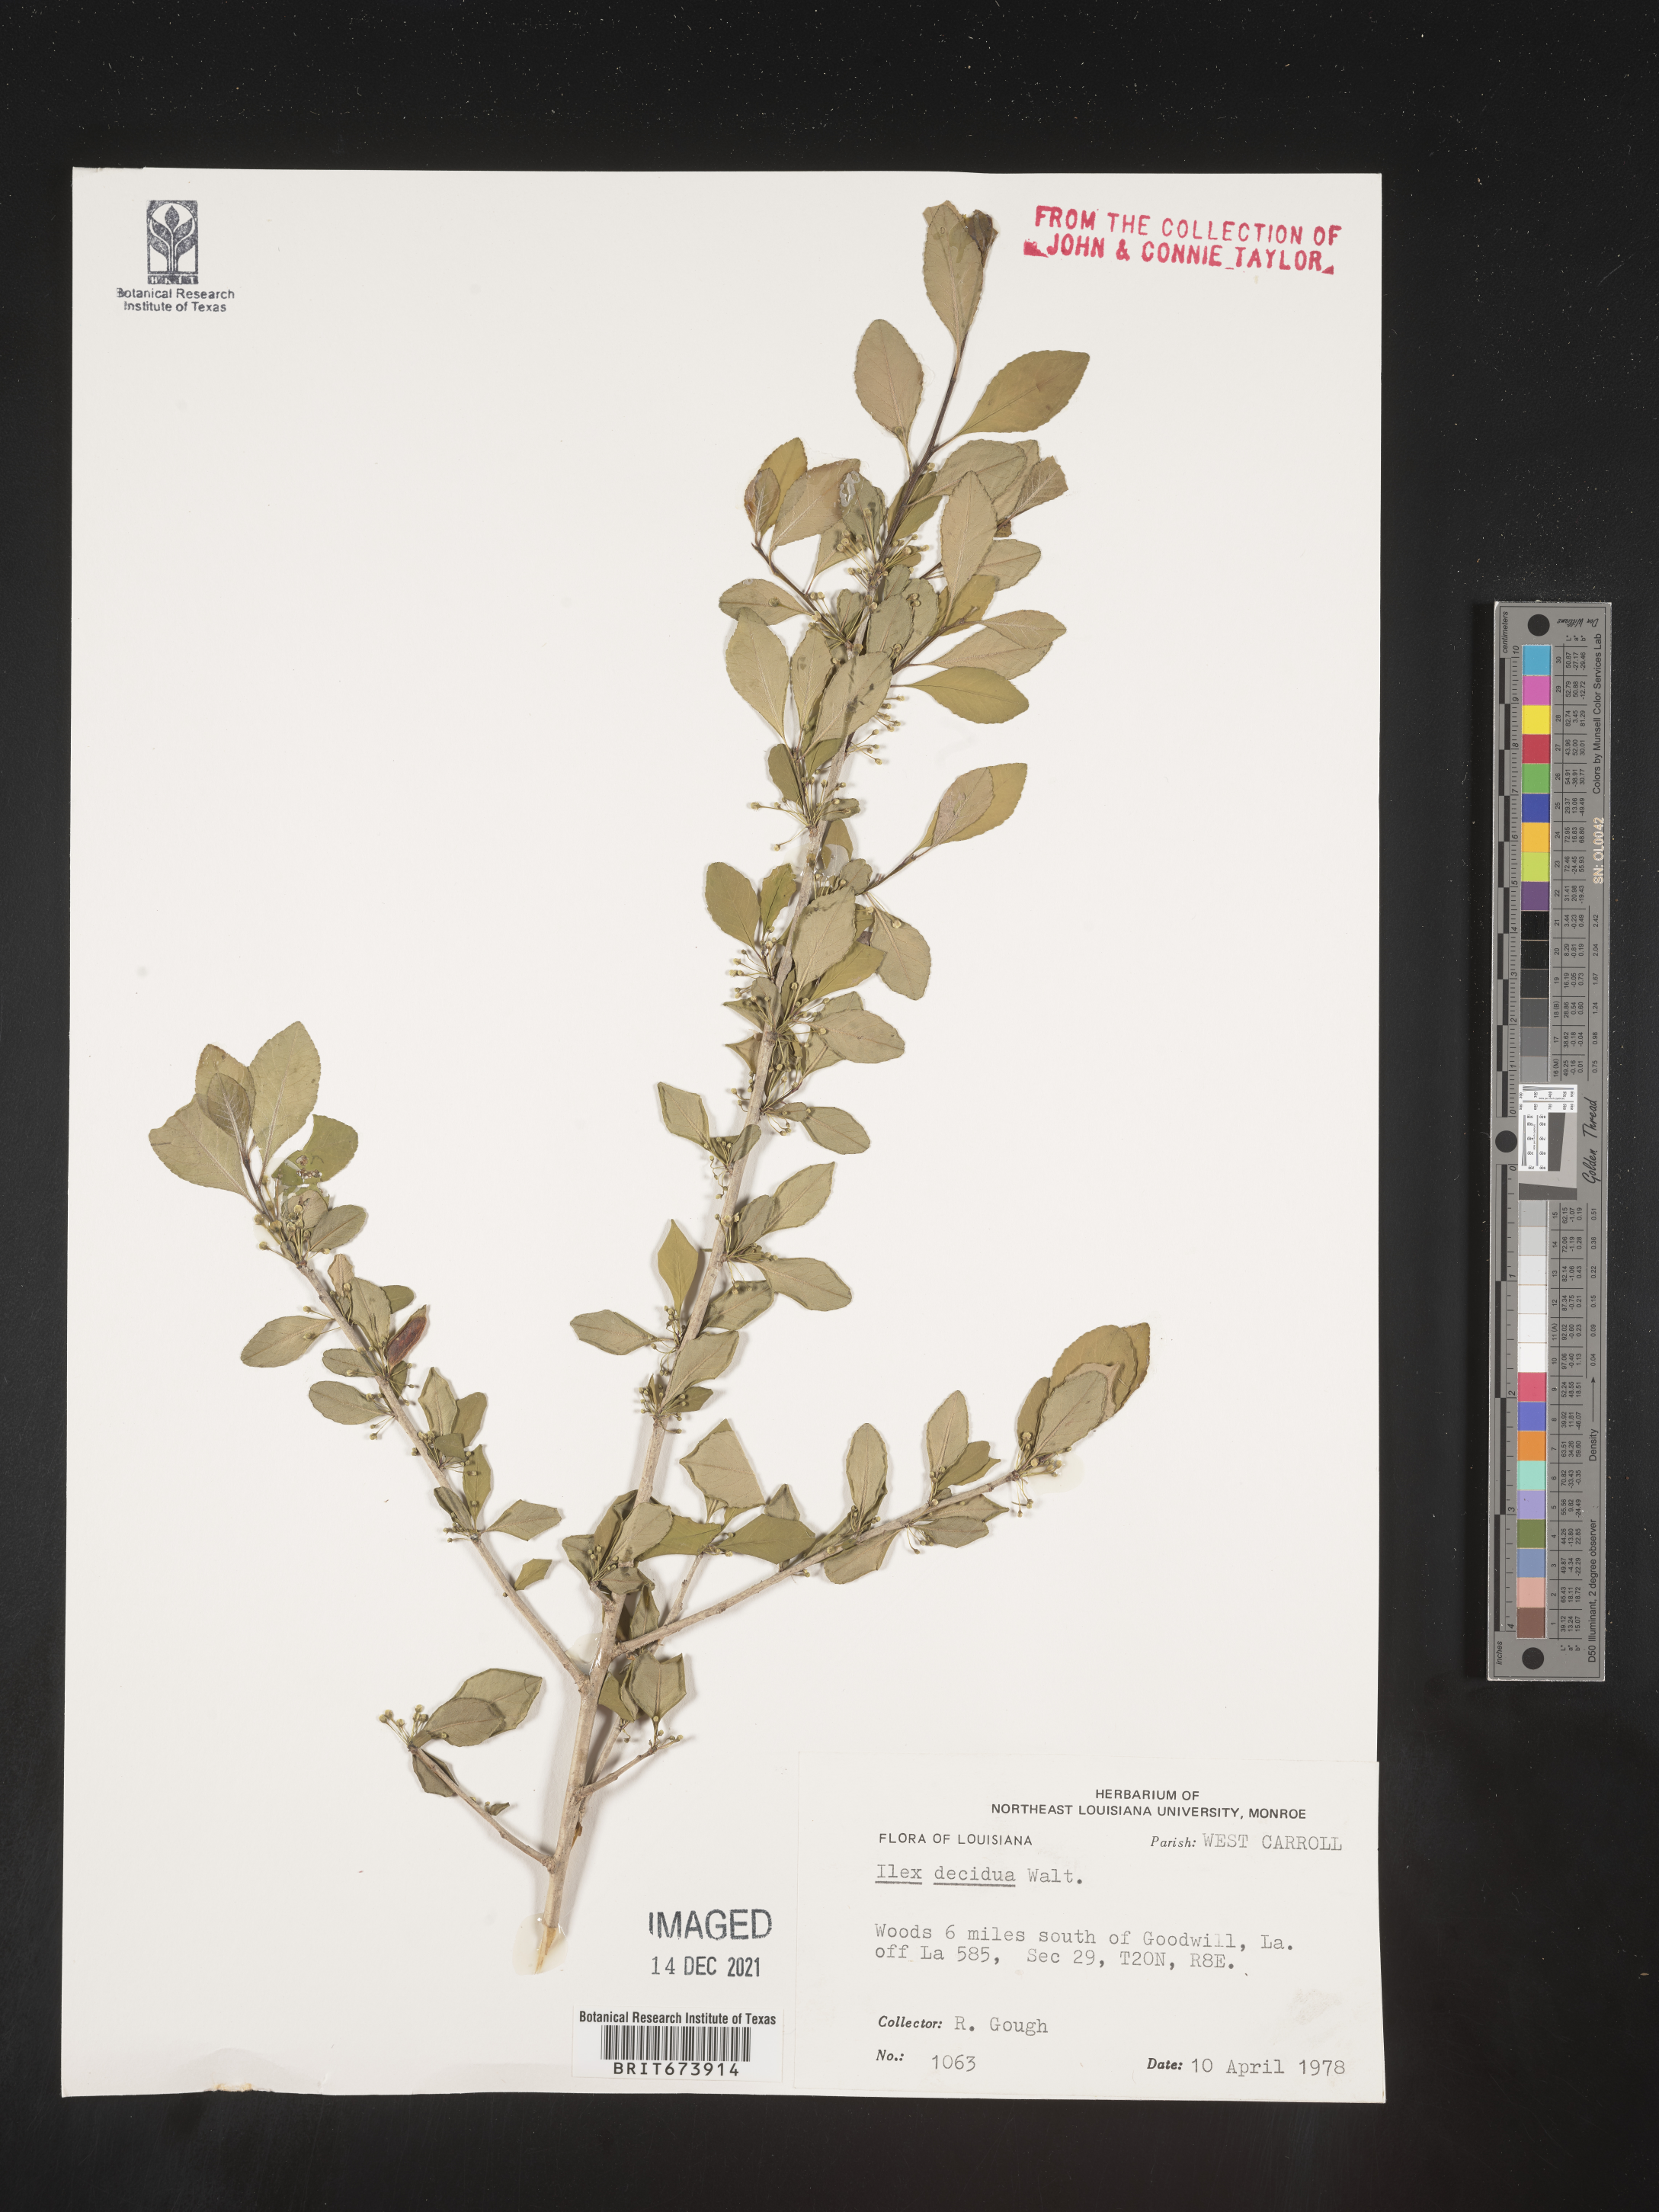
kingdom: Plantae
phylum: Tracheophyta
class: Magnoliopsida
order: Aquifoliales
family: Aquifoliaceae
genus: Ilex
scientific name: Ilex decidua
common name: Possum-haw
